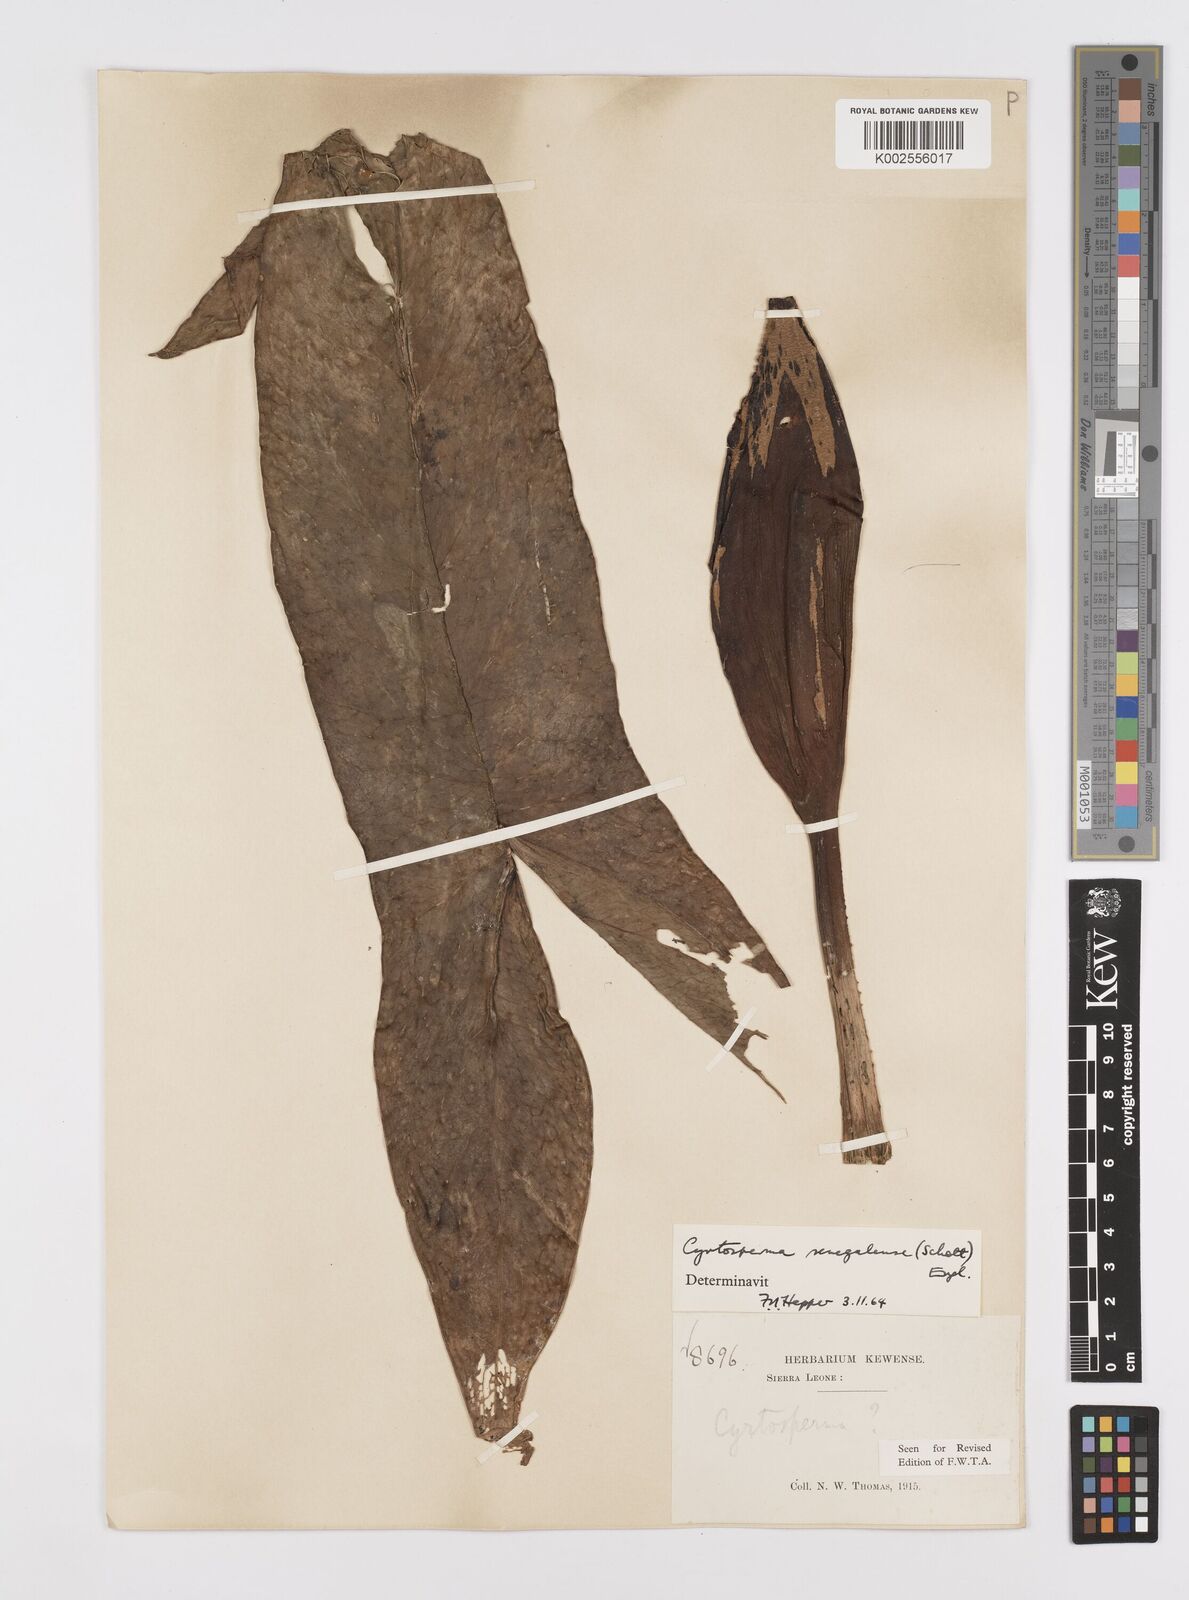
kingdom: Plantae
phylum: Tracheophyta
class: Liliopsida
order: Alismatales
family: Araceae
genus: Lasimorpha
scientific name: Lasimorpha senegalensis
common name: Swamp arum
